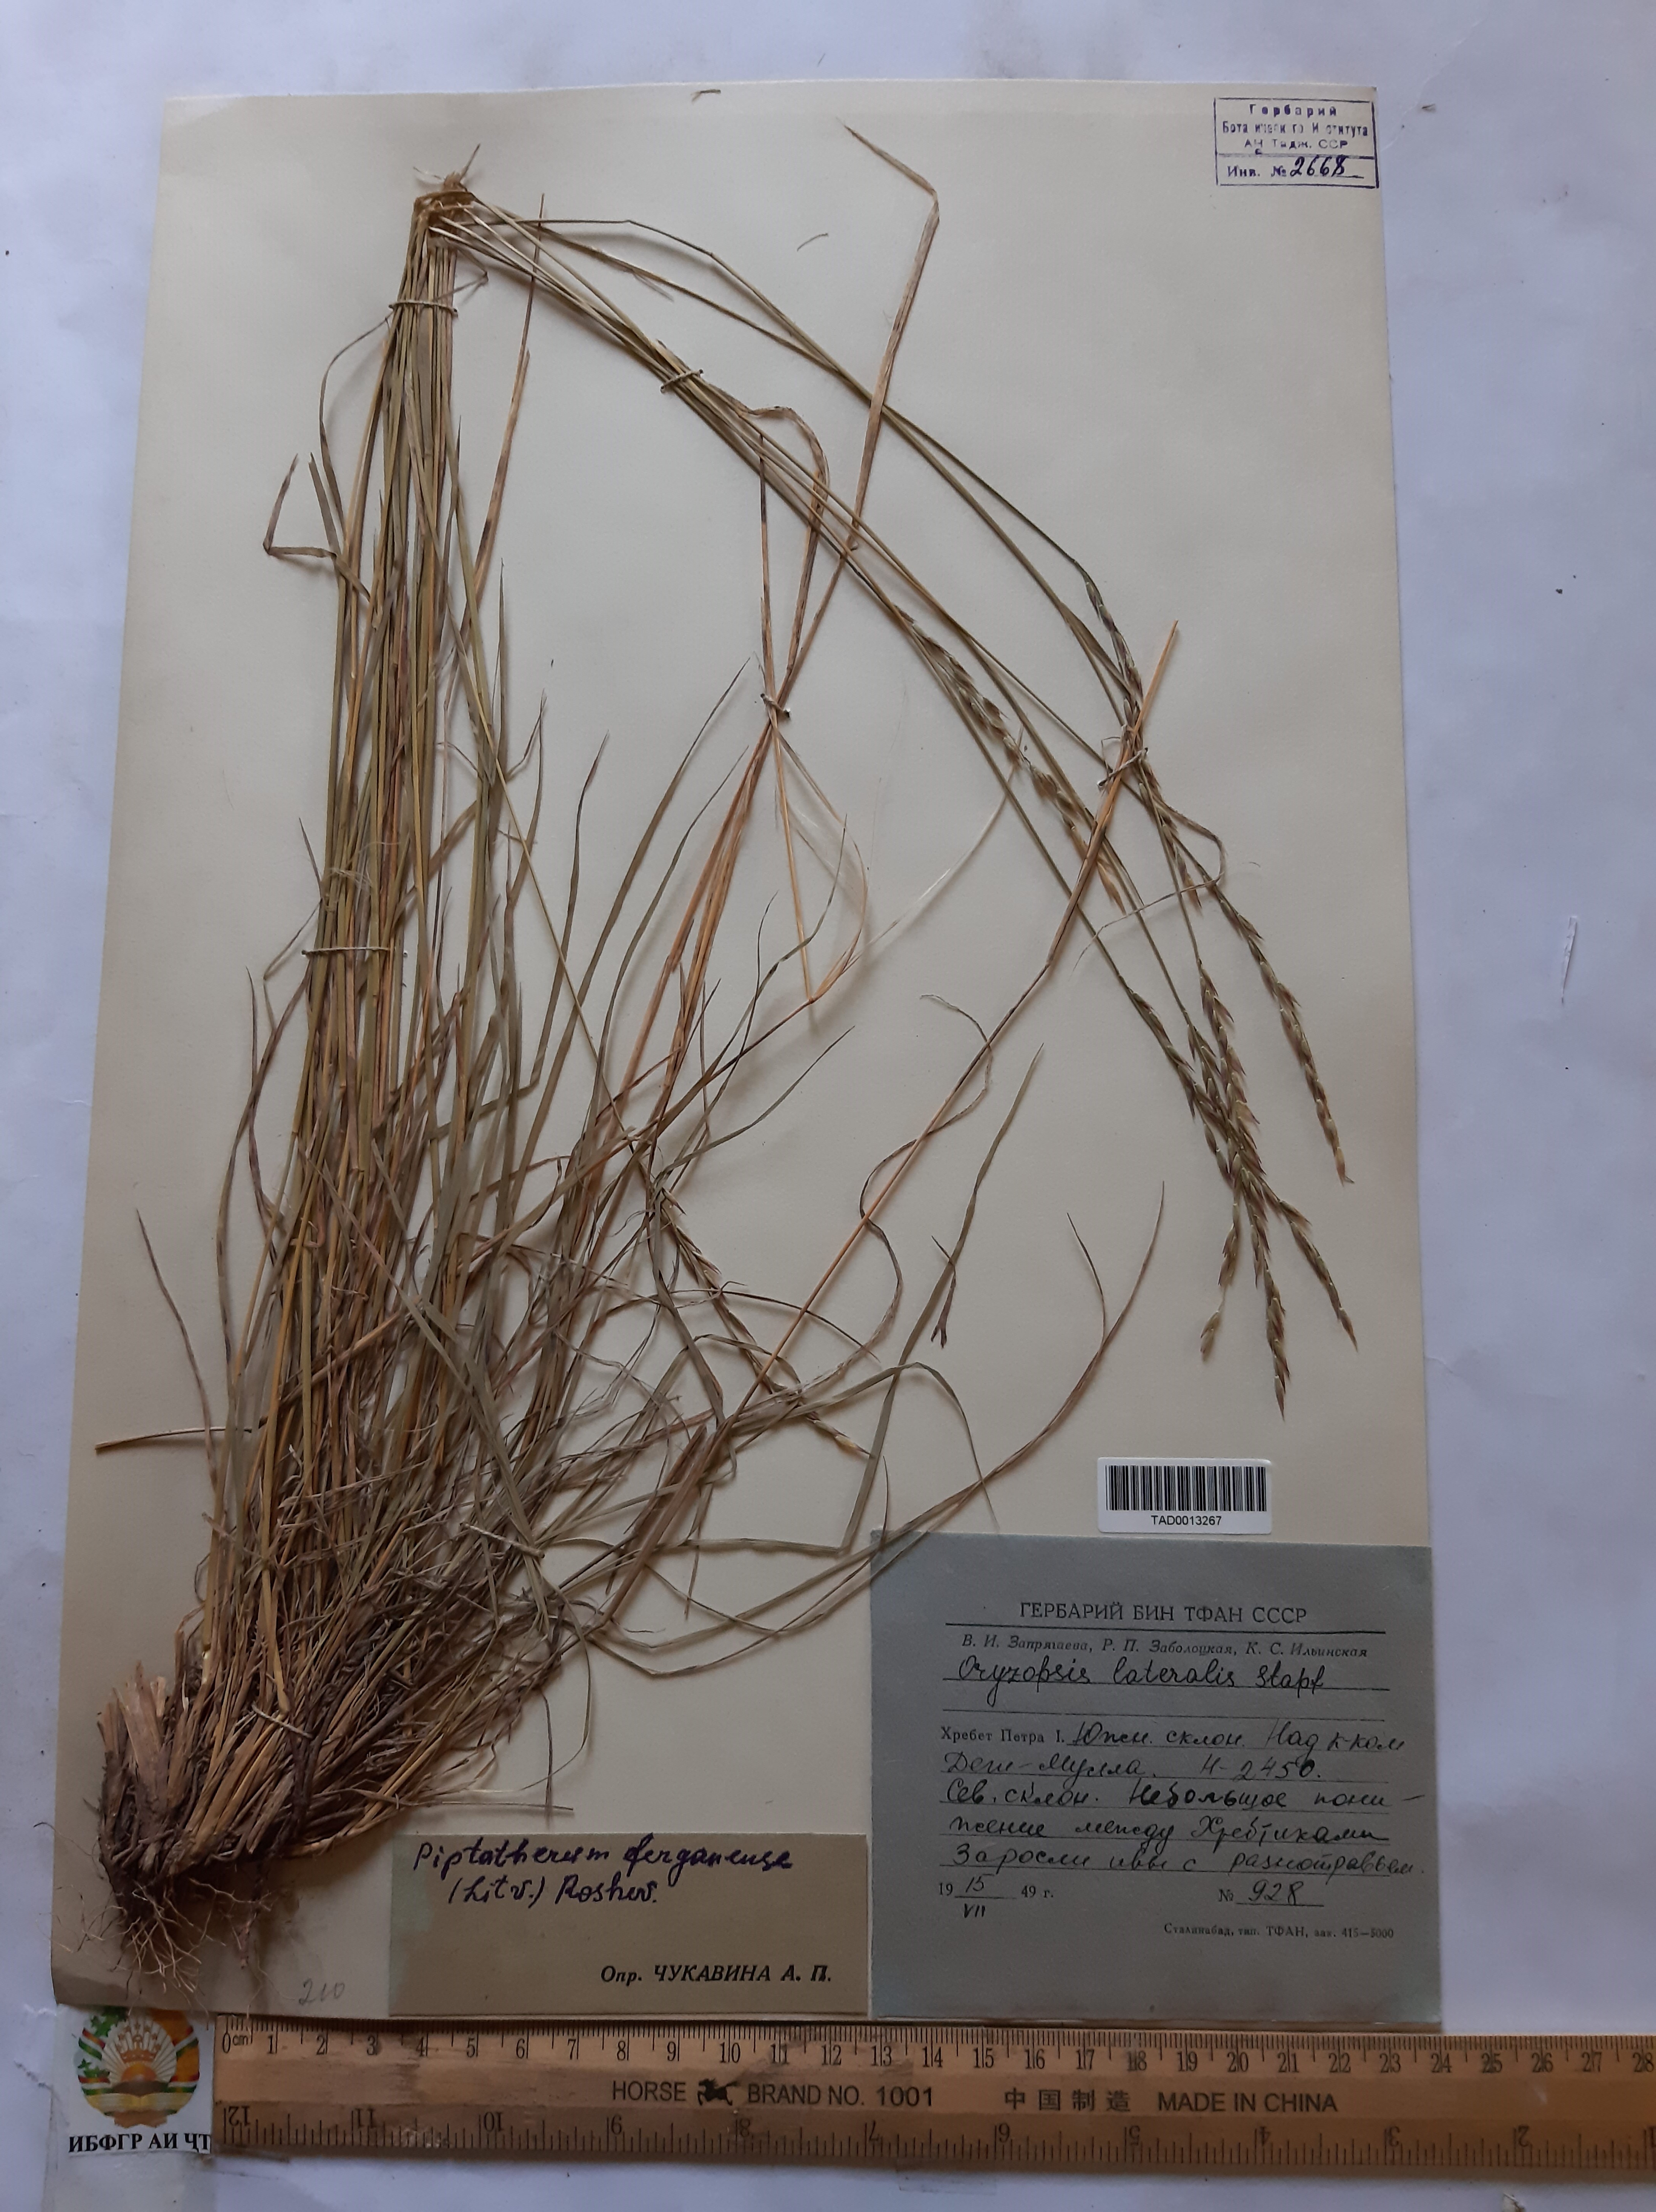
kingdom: Plantae
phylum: Tracheophyta
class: Liliopsida
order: Poales
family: Poaceae
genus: Piptatherum
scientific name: Piptatherum ferganense
